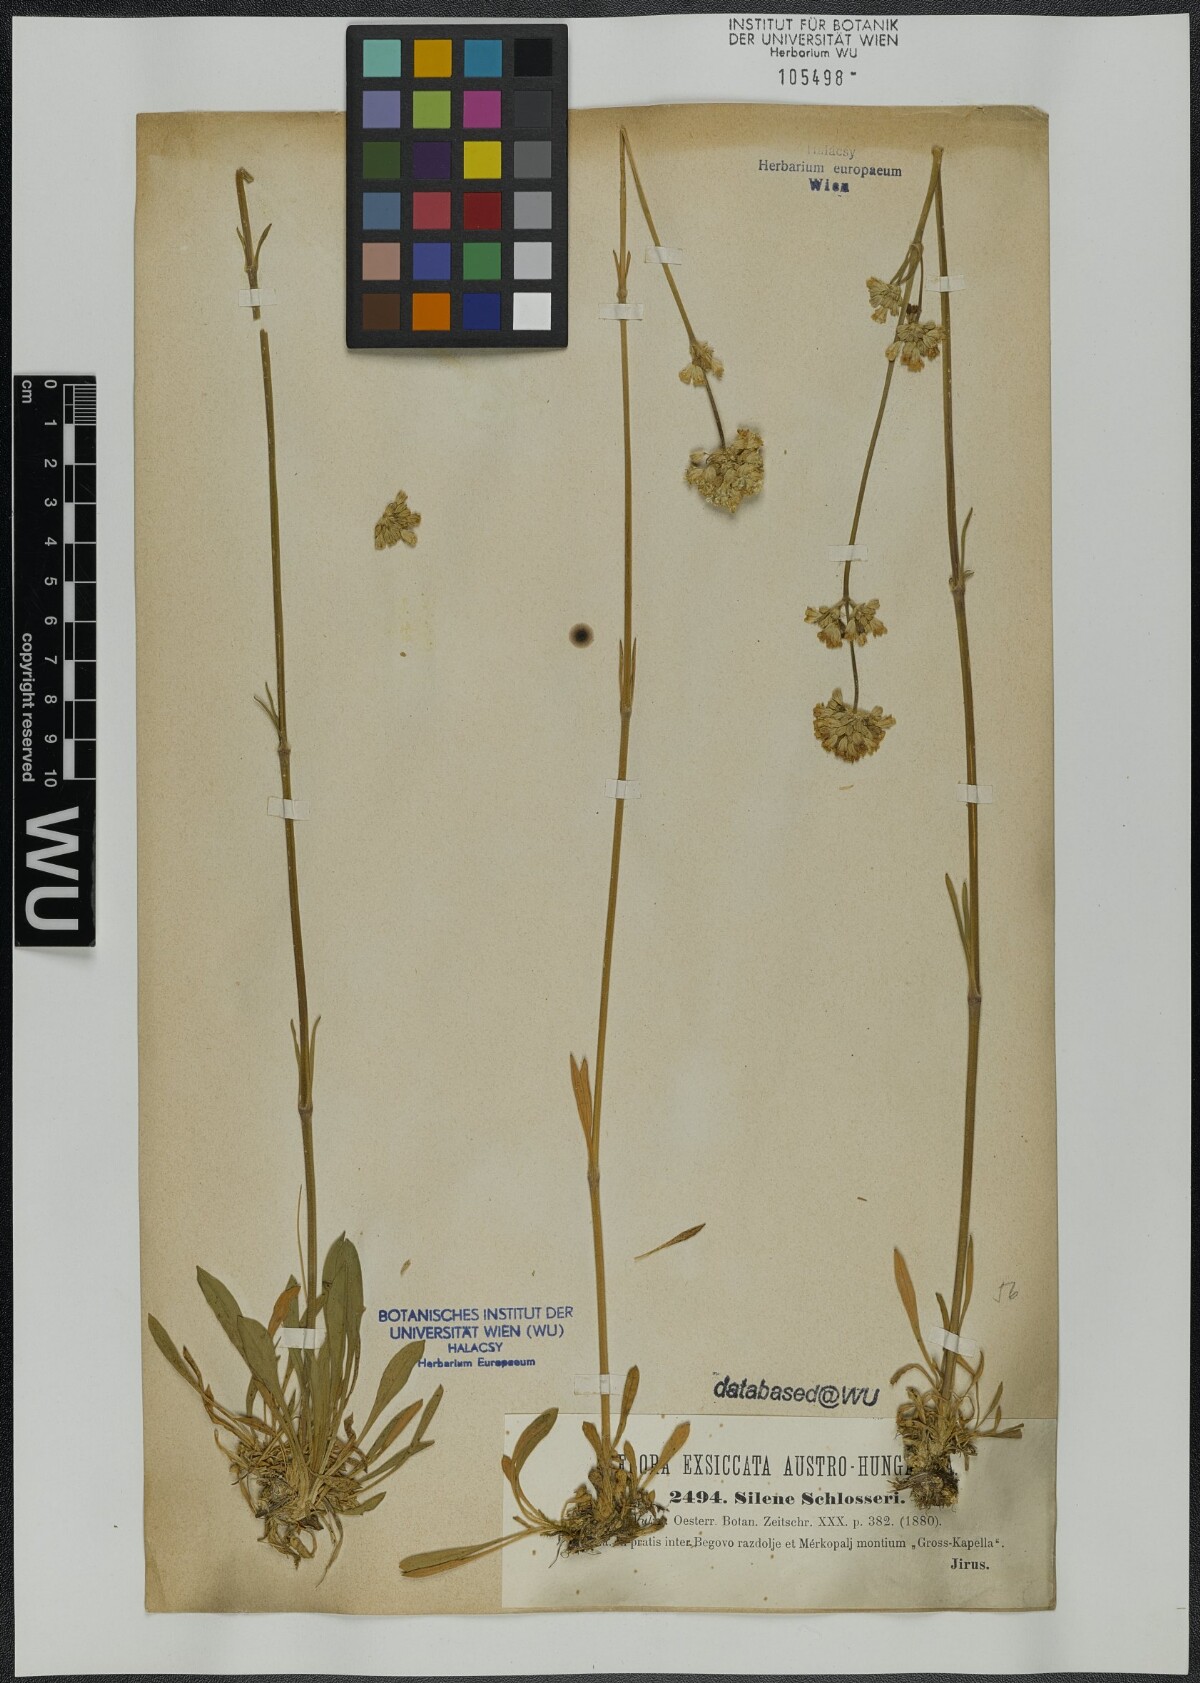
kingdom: Plantae
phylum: Tracheophyta
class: Magnoliopsida
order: Caryophyllales
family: Caryophyllaceae
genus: Silene
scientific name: Silene sendtneri
